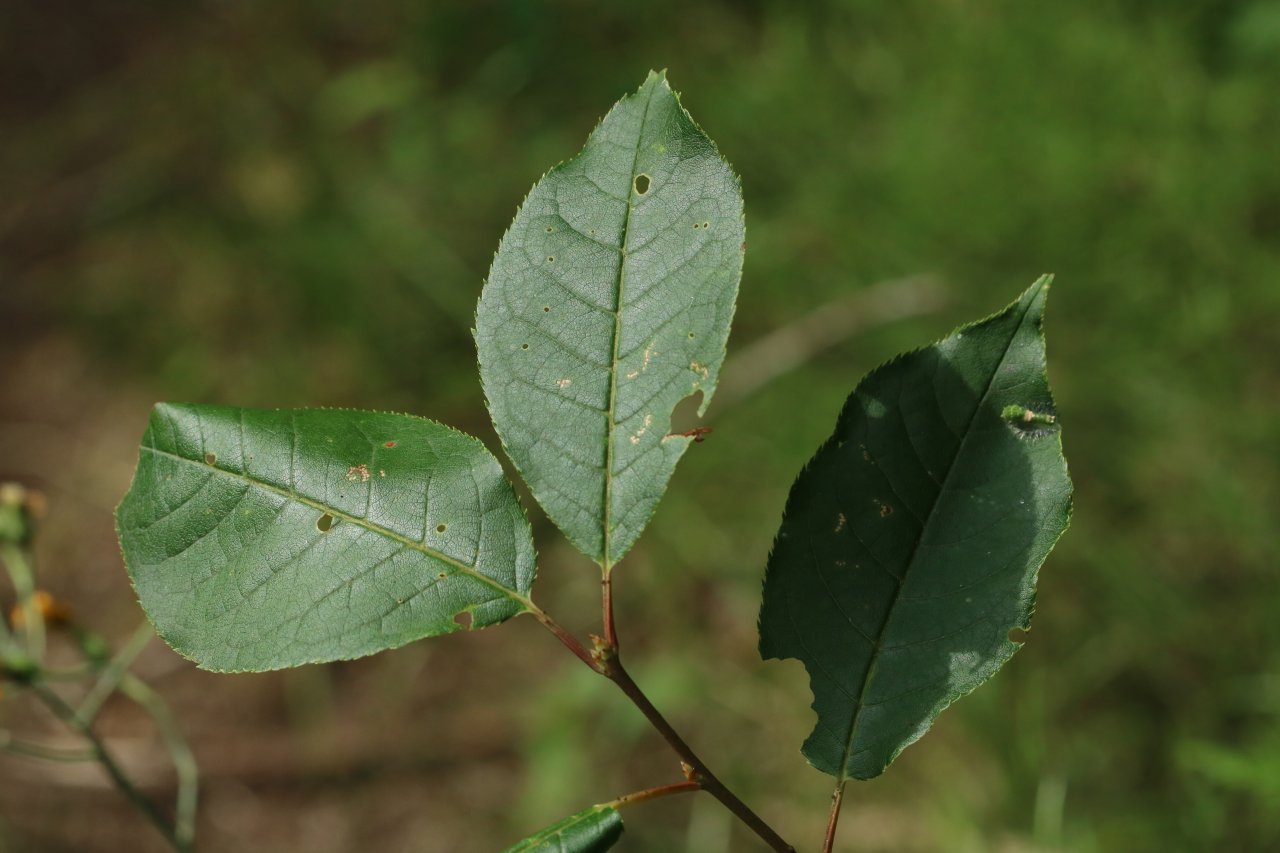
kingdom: Animalia
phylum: Arthropoda
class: Insecta
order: Lepidoptera
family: Papilionidae
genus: Papilio
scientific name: Papilio
